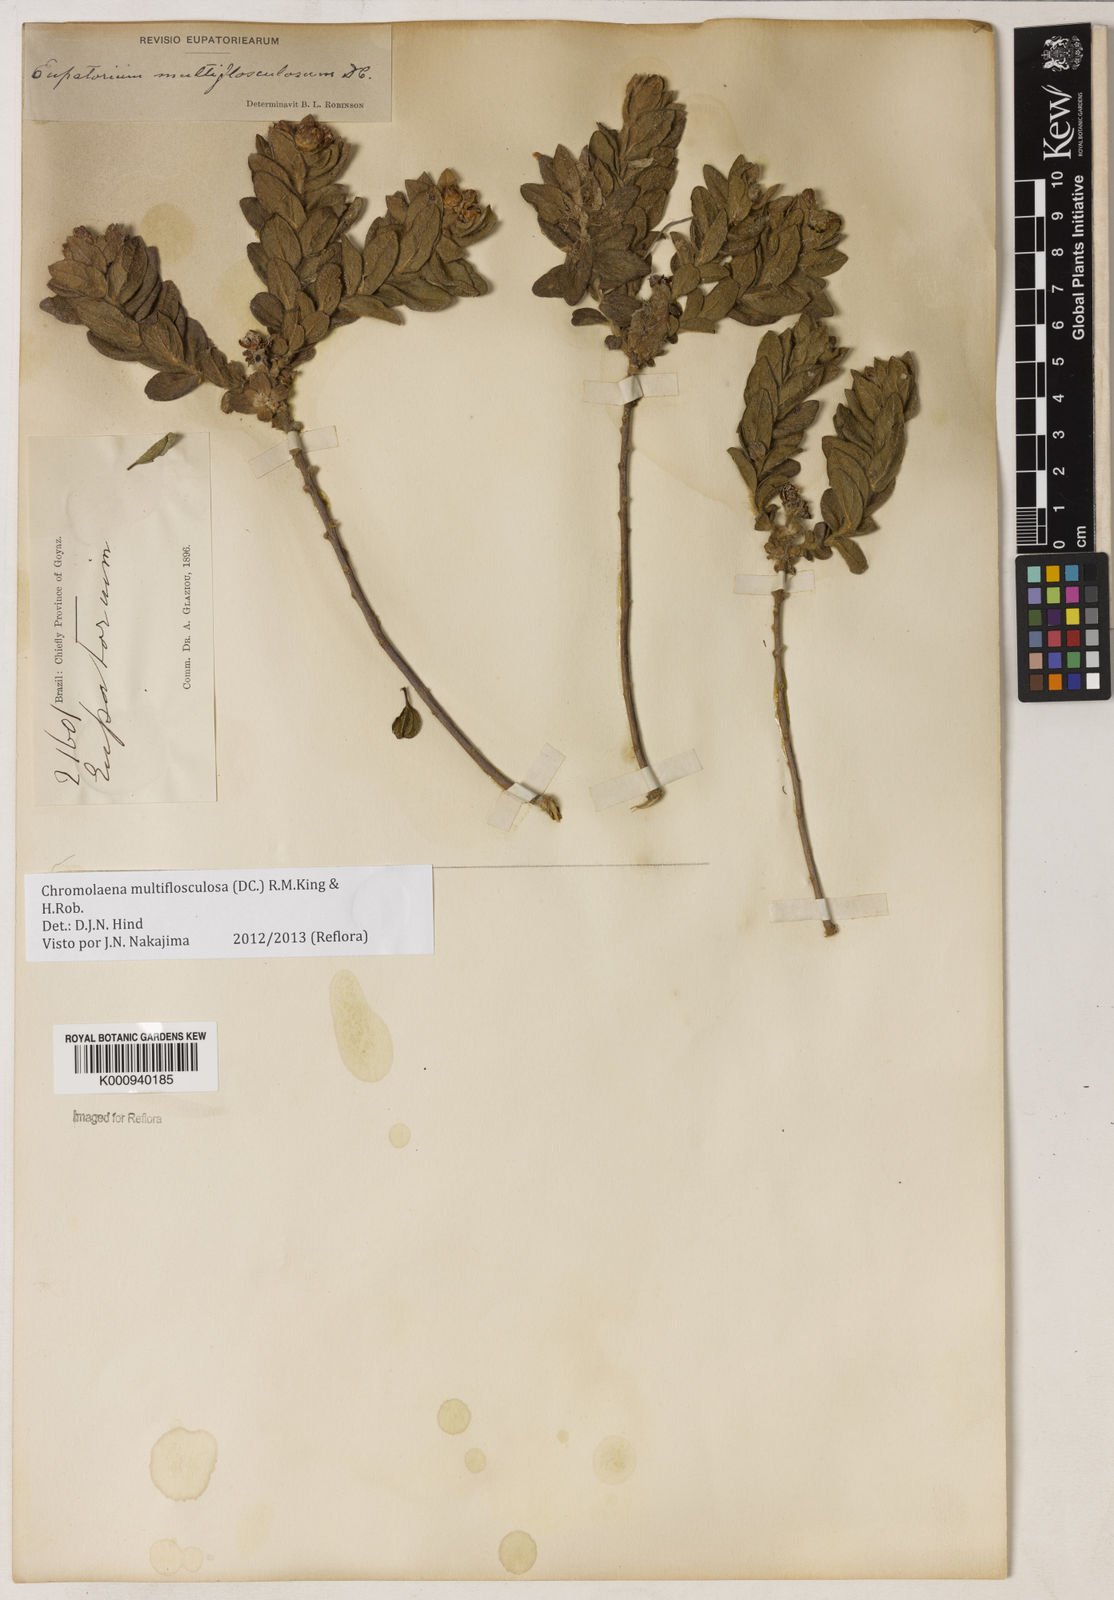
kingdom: Plantae
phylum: Tracheophyta
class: Magnoliopsida
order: Asterales
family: Asteraceae
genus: Chromolaena
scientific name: Chromolaena multiflosculosa
